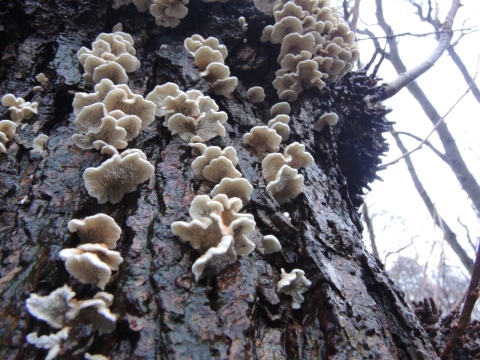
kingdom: Fungi
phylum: Basidiomycota
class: Agaricomycetes
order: Amylocorticiales
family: Amylocorticiaceae
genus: Plicaturopsis
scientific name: Plicaturopsis crispa
